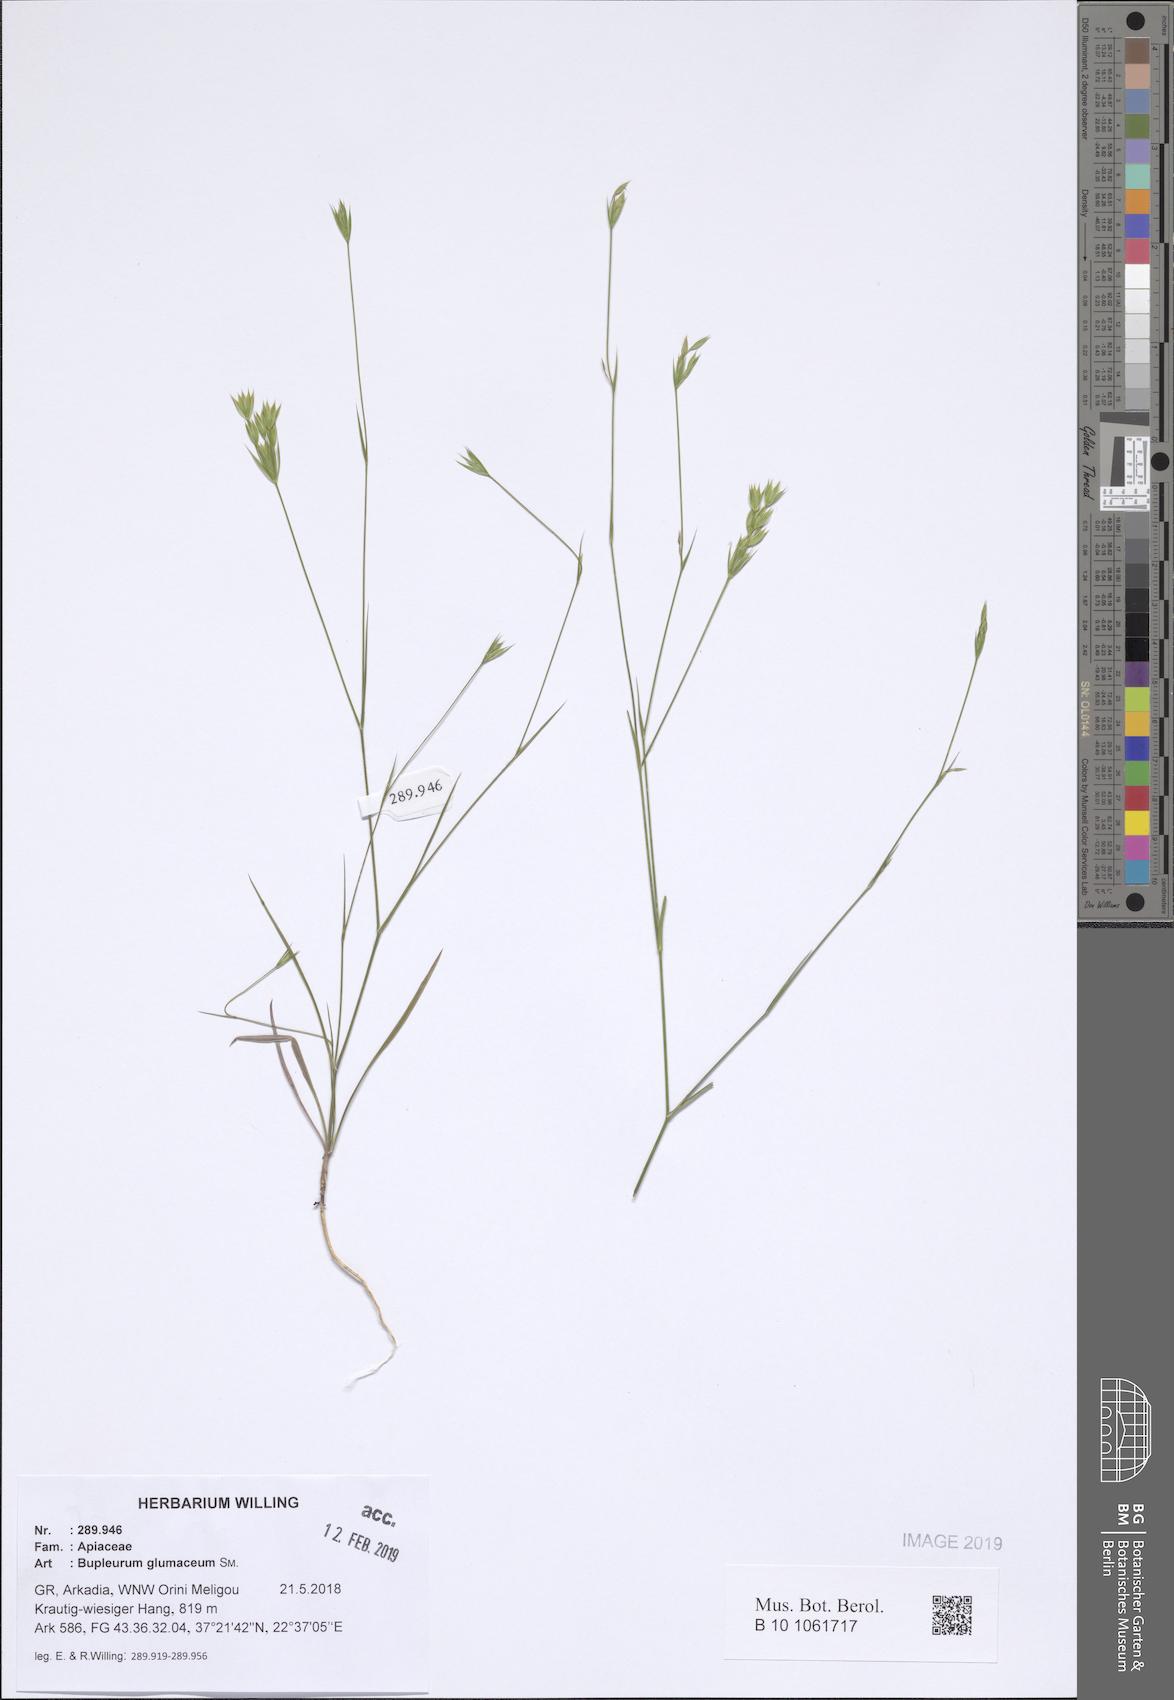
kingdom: Plantae
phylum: Tracheophyta
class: Magnoliopsida
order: Apiales
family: Apiaceae
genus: Bupleurum
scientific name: Bupleurum glumaceum
